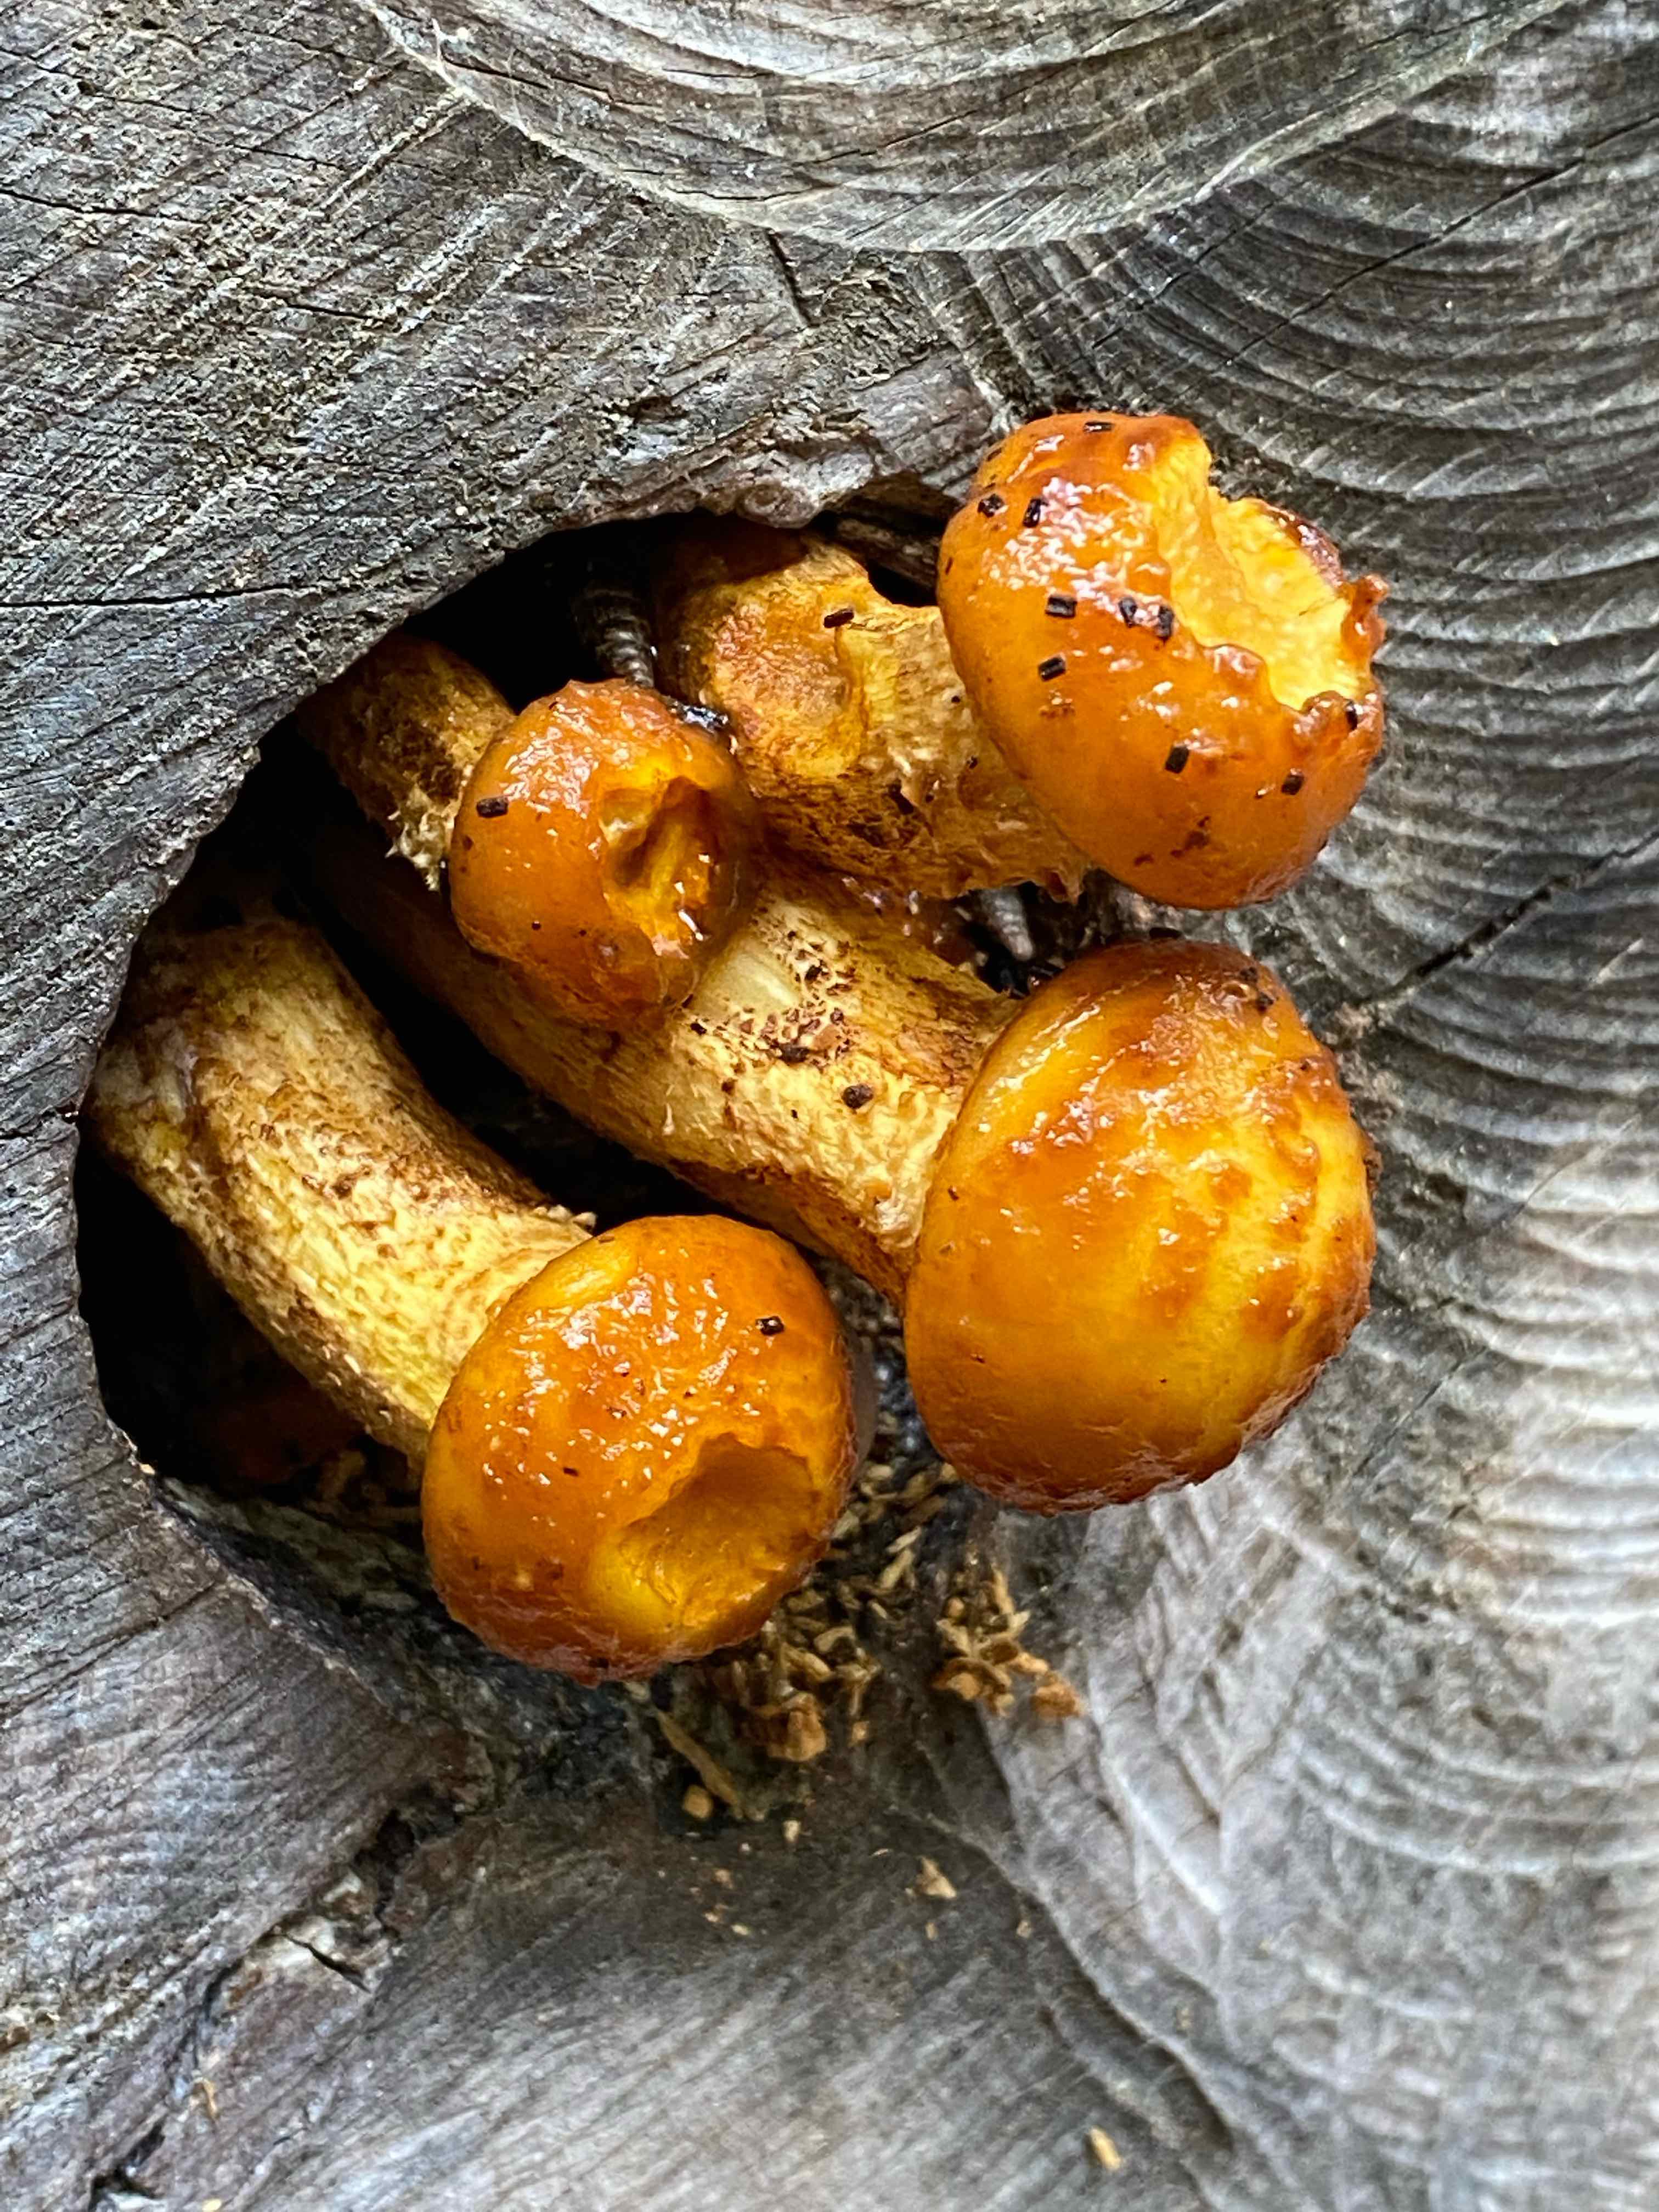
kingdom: Fungi
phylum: Basidiomycota
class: Agaricomycetes
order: Agaricales
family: Strophariaceae
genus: Pholiota
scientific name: Pholiota adiposa
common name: højtsiddende skælhat
